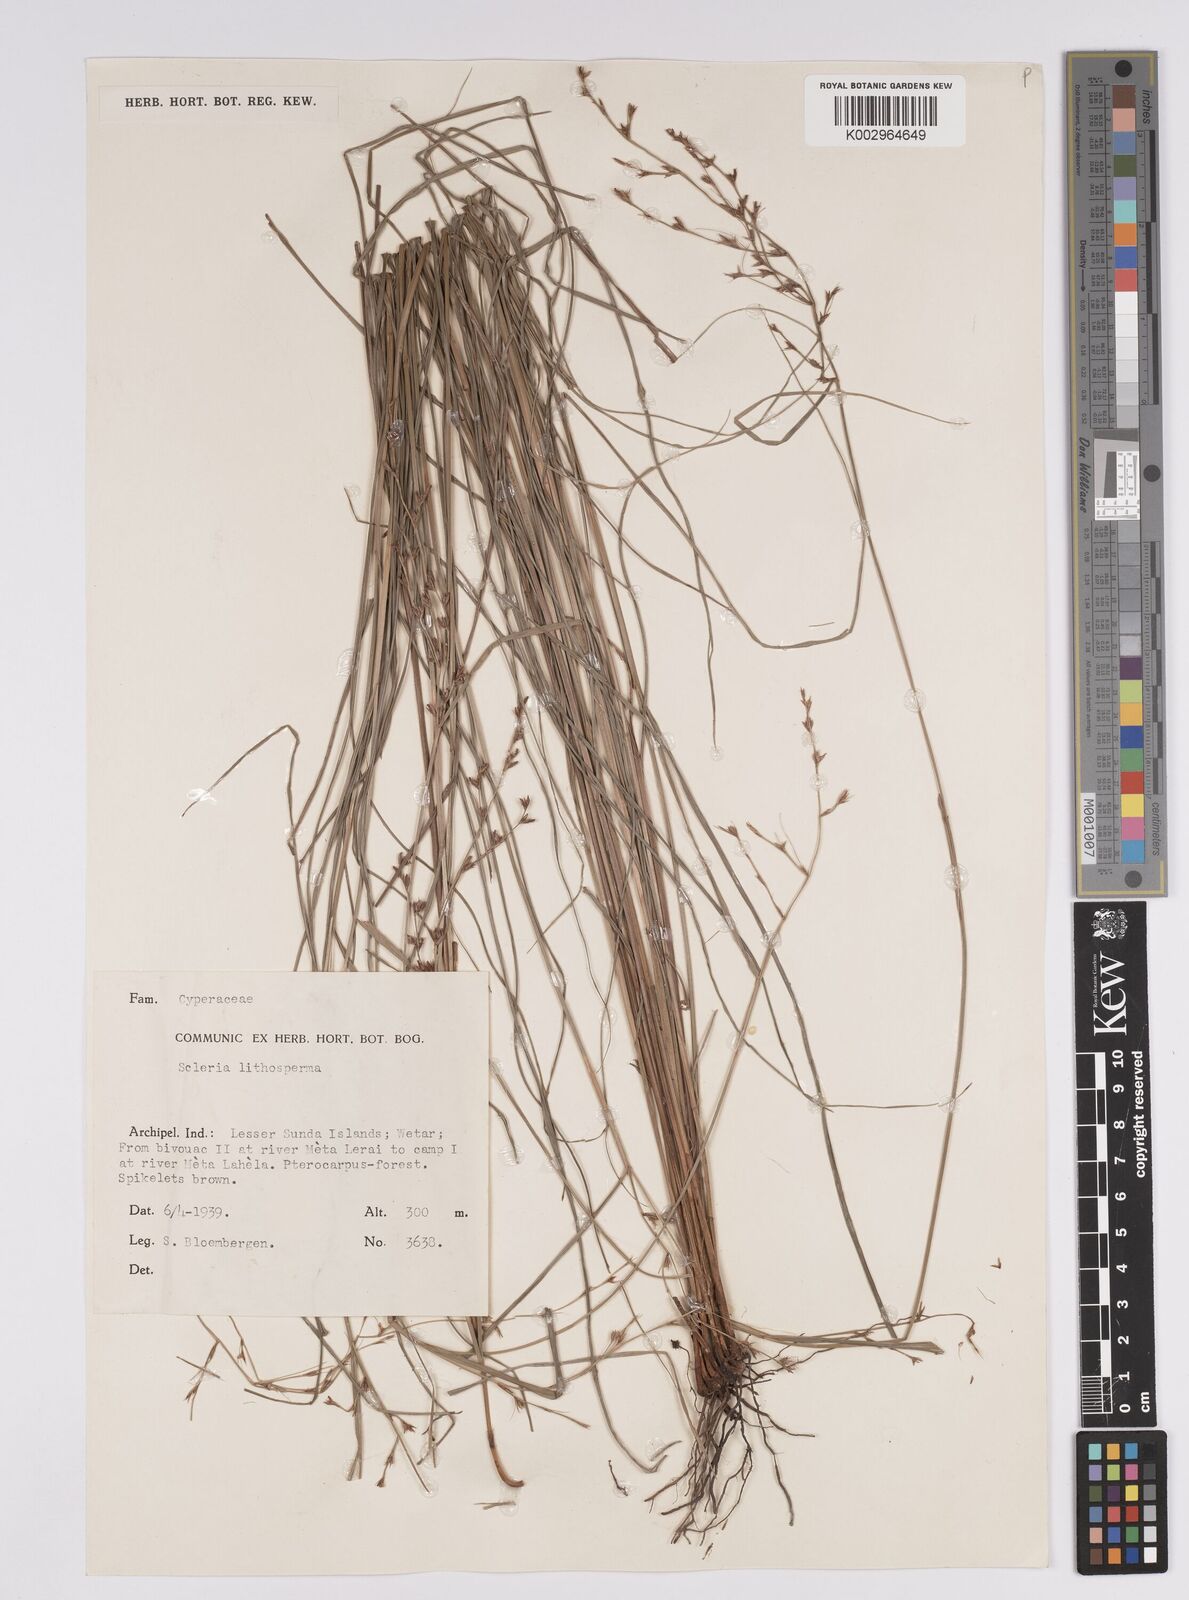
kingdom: Plantae
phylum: Tracheophyta
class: Liliopsida
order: Poales
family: Cyperaceae
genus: Scleria
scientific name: Scleria lithosperma
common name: Florida keys nut-rush
